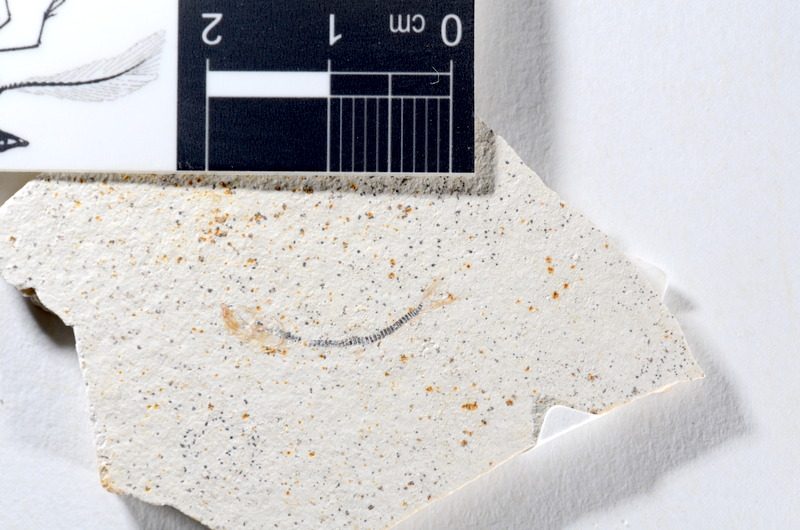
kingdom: Animalia
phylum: Chordata
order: Salmoniformes
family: Orthogonikleithridae
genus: Orthogonikleithrus
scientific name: Orthogonikleithrus hoelli
